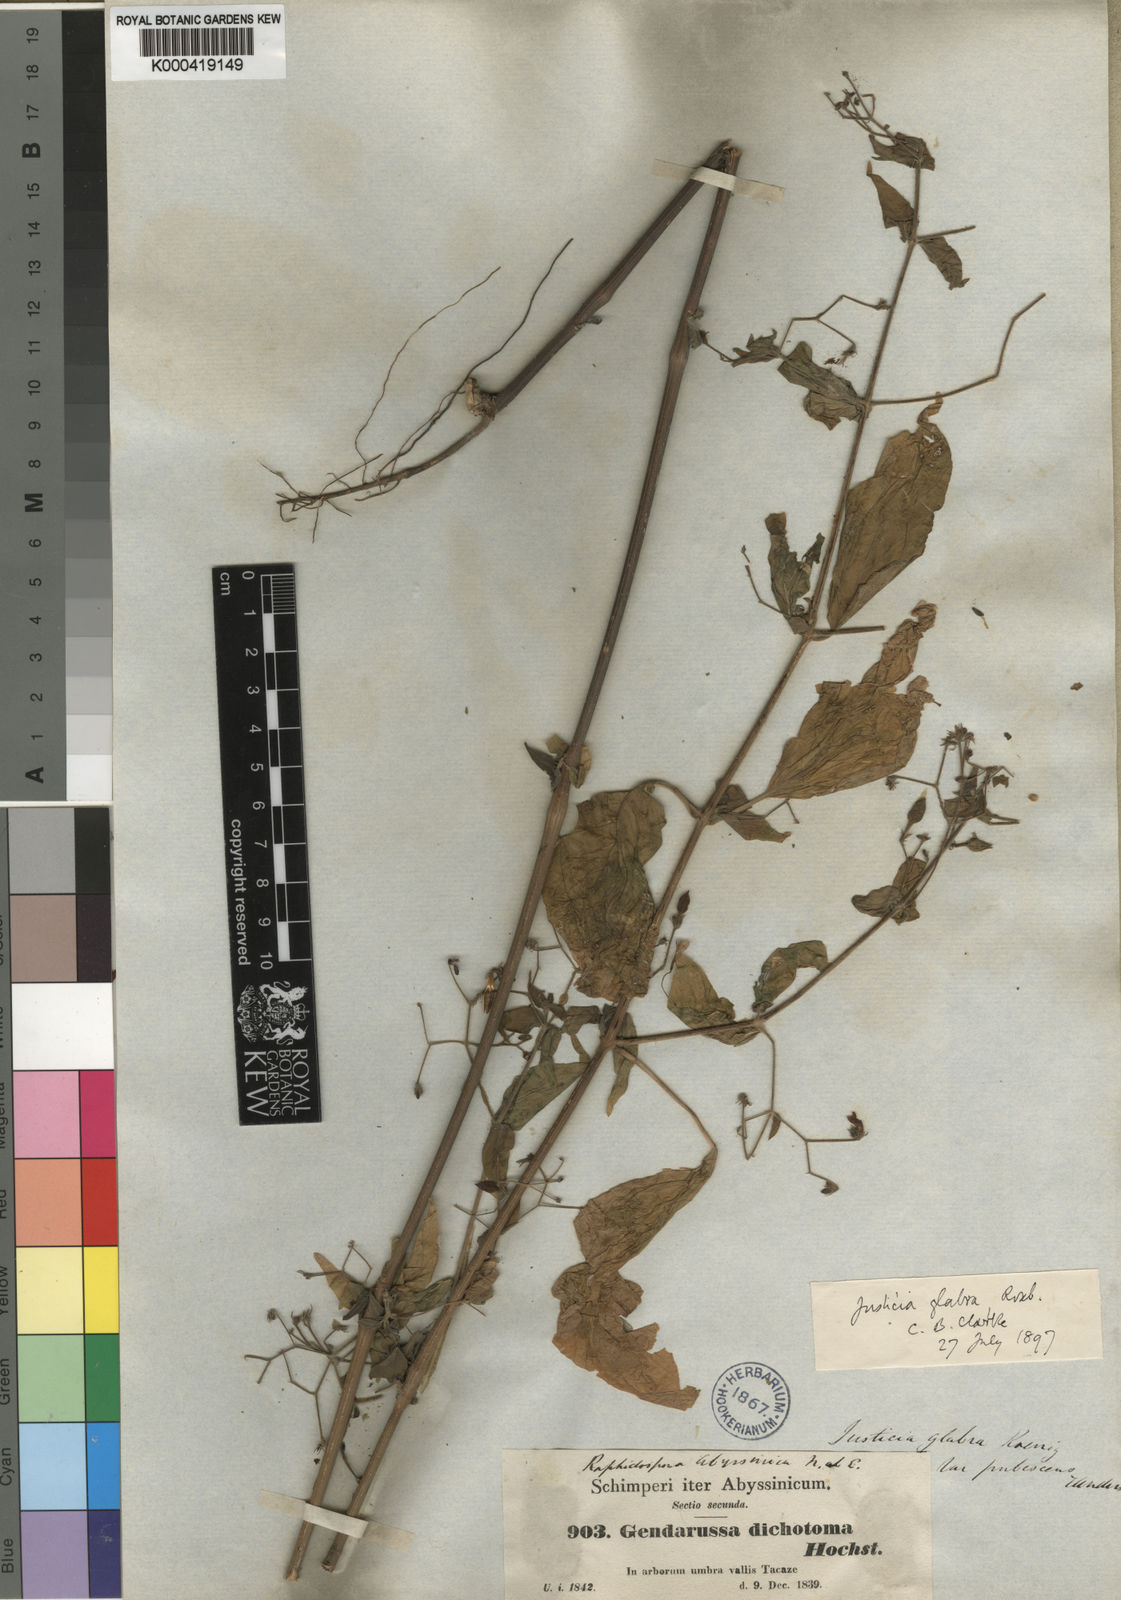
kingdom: Plantae
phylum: Tracheophyta
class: Magnoliopsida
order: Lamiales
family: Acanthaceae
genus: Justicia
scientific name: Justicia
